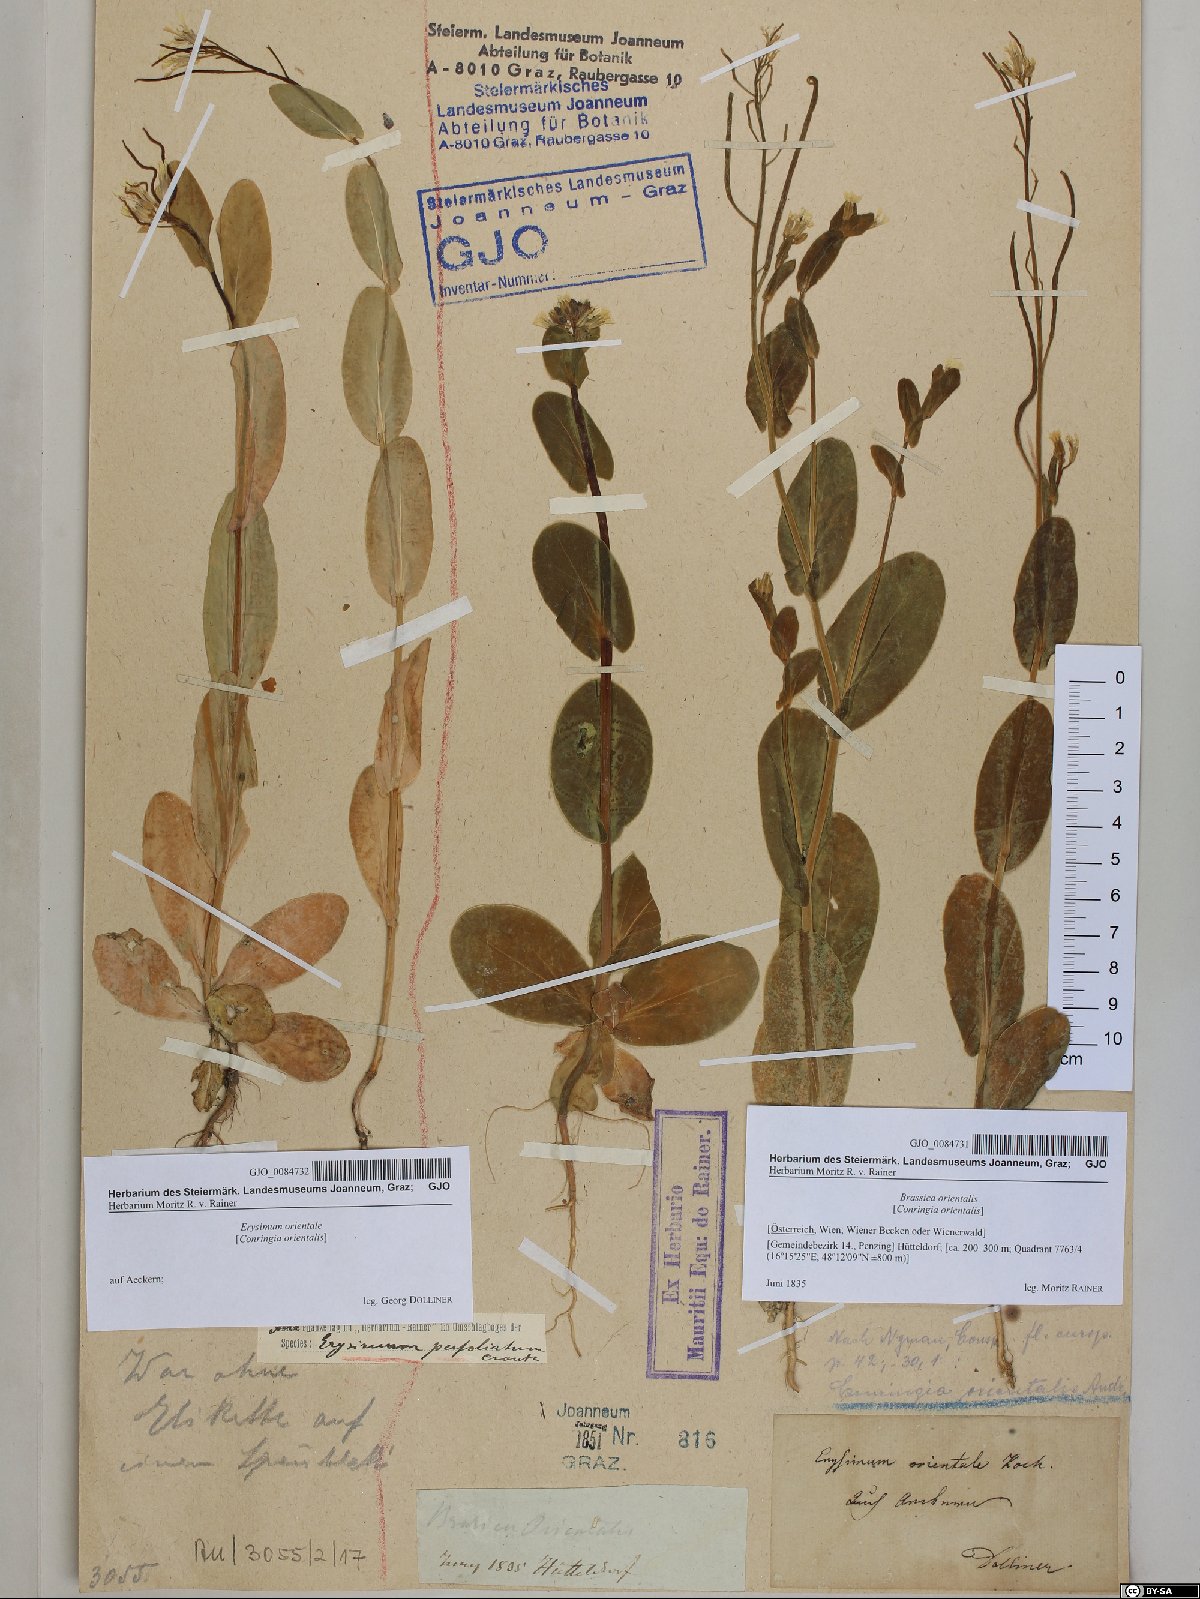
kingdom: Plantae
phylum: Tracheophyta
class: Magnoliopsida
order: Brassicales
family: Brassicaceae
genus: Conringia
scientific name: Conringia orientalis
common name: Hare's ear mustard
